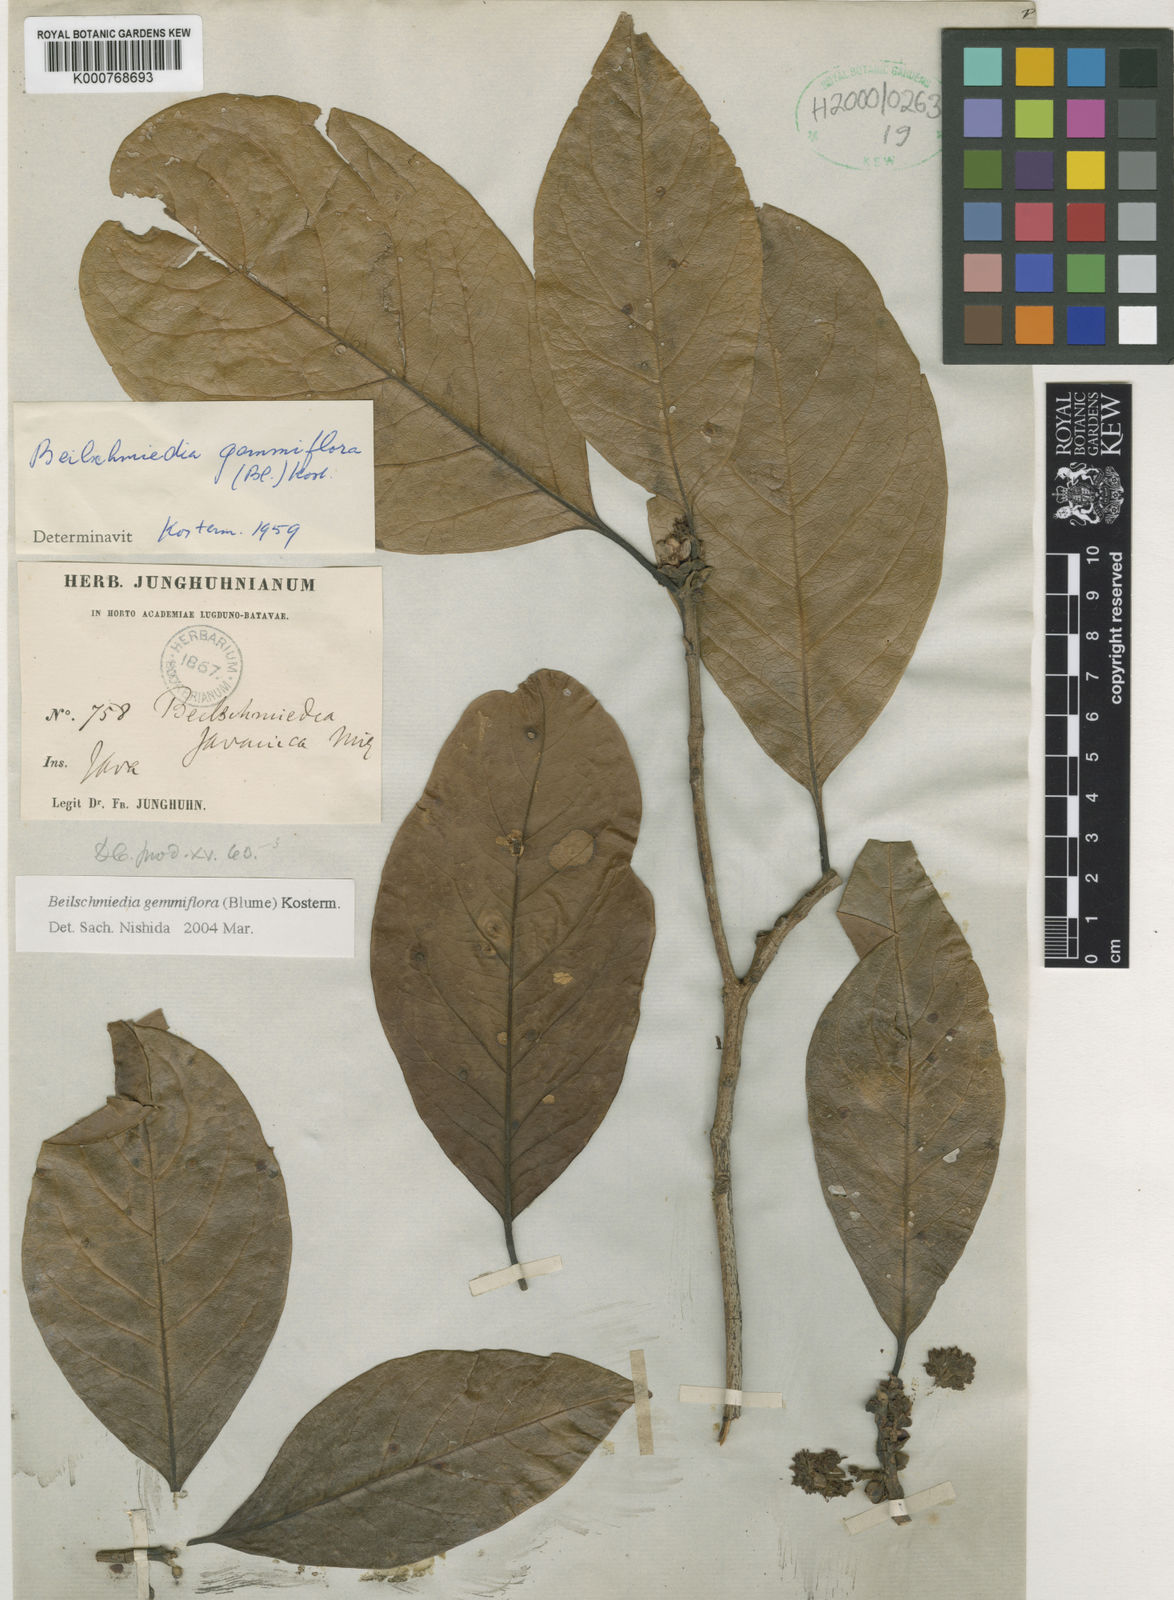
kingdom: Plantae
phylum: Tracheophyta
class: Magnoliopsida
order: Laurales
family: Lauraceae
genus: Beilschmiedia
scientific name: Beilschmiedia gemmiflora
